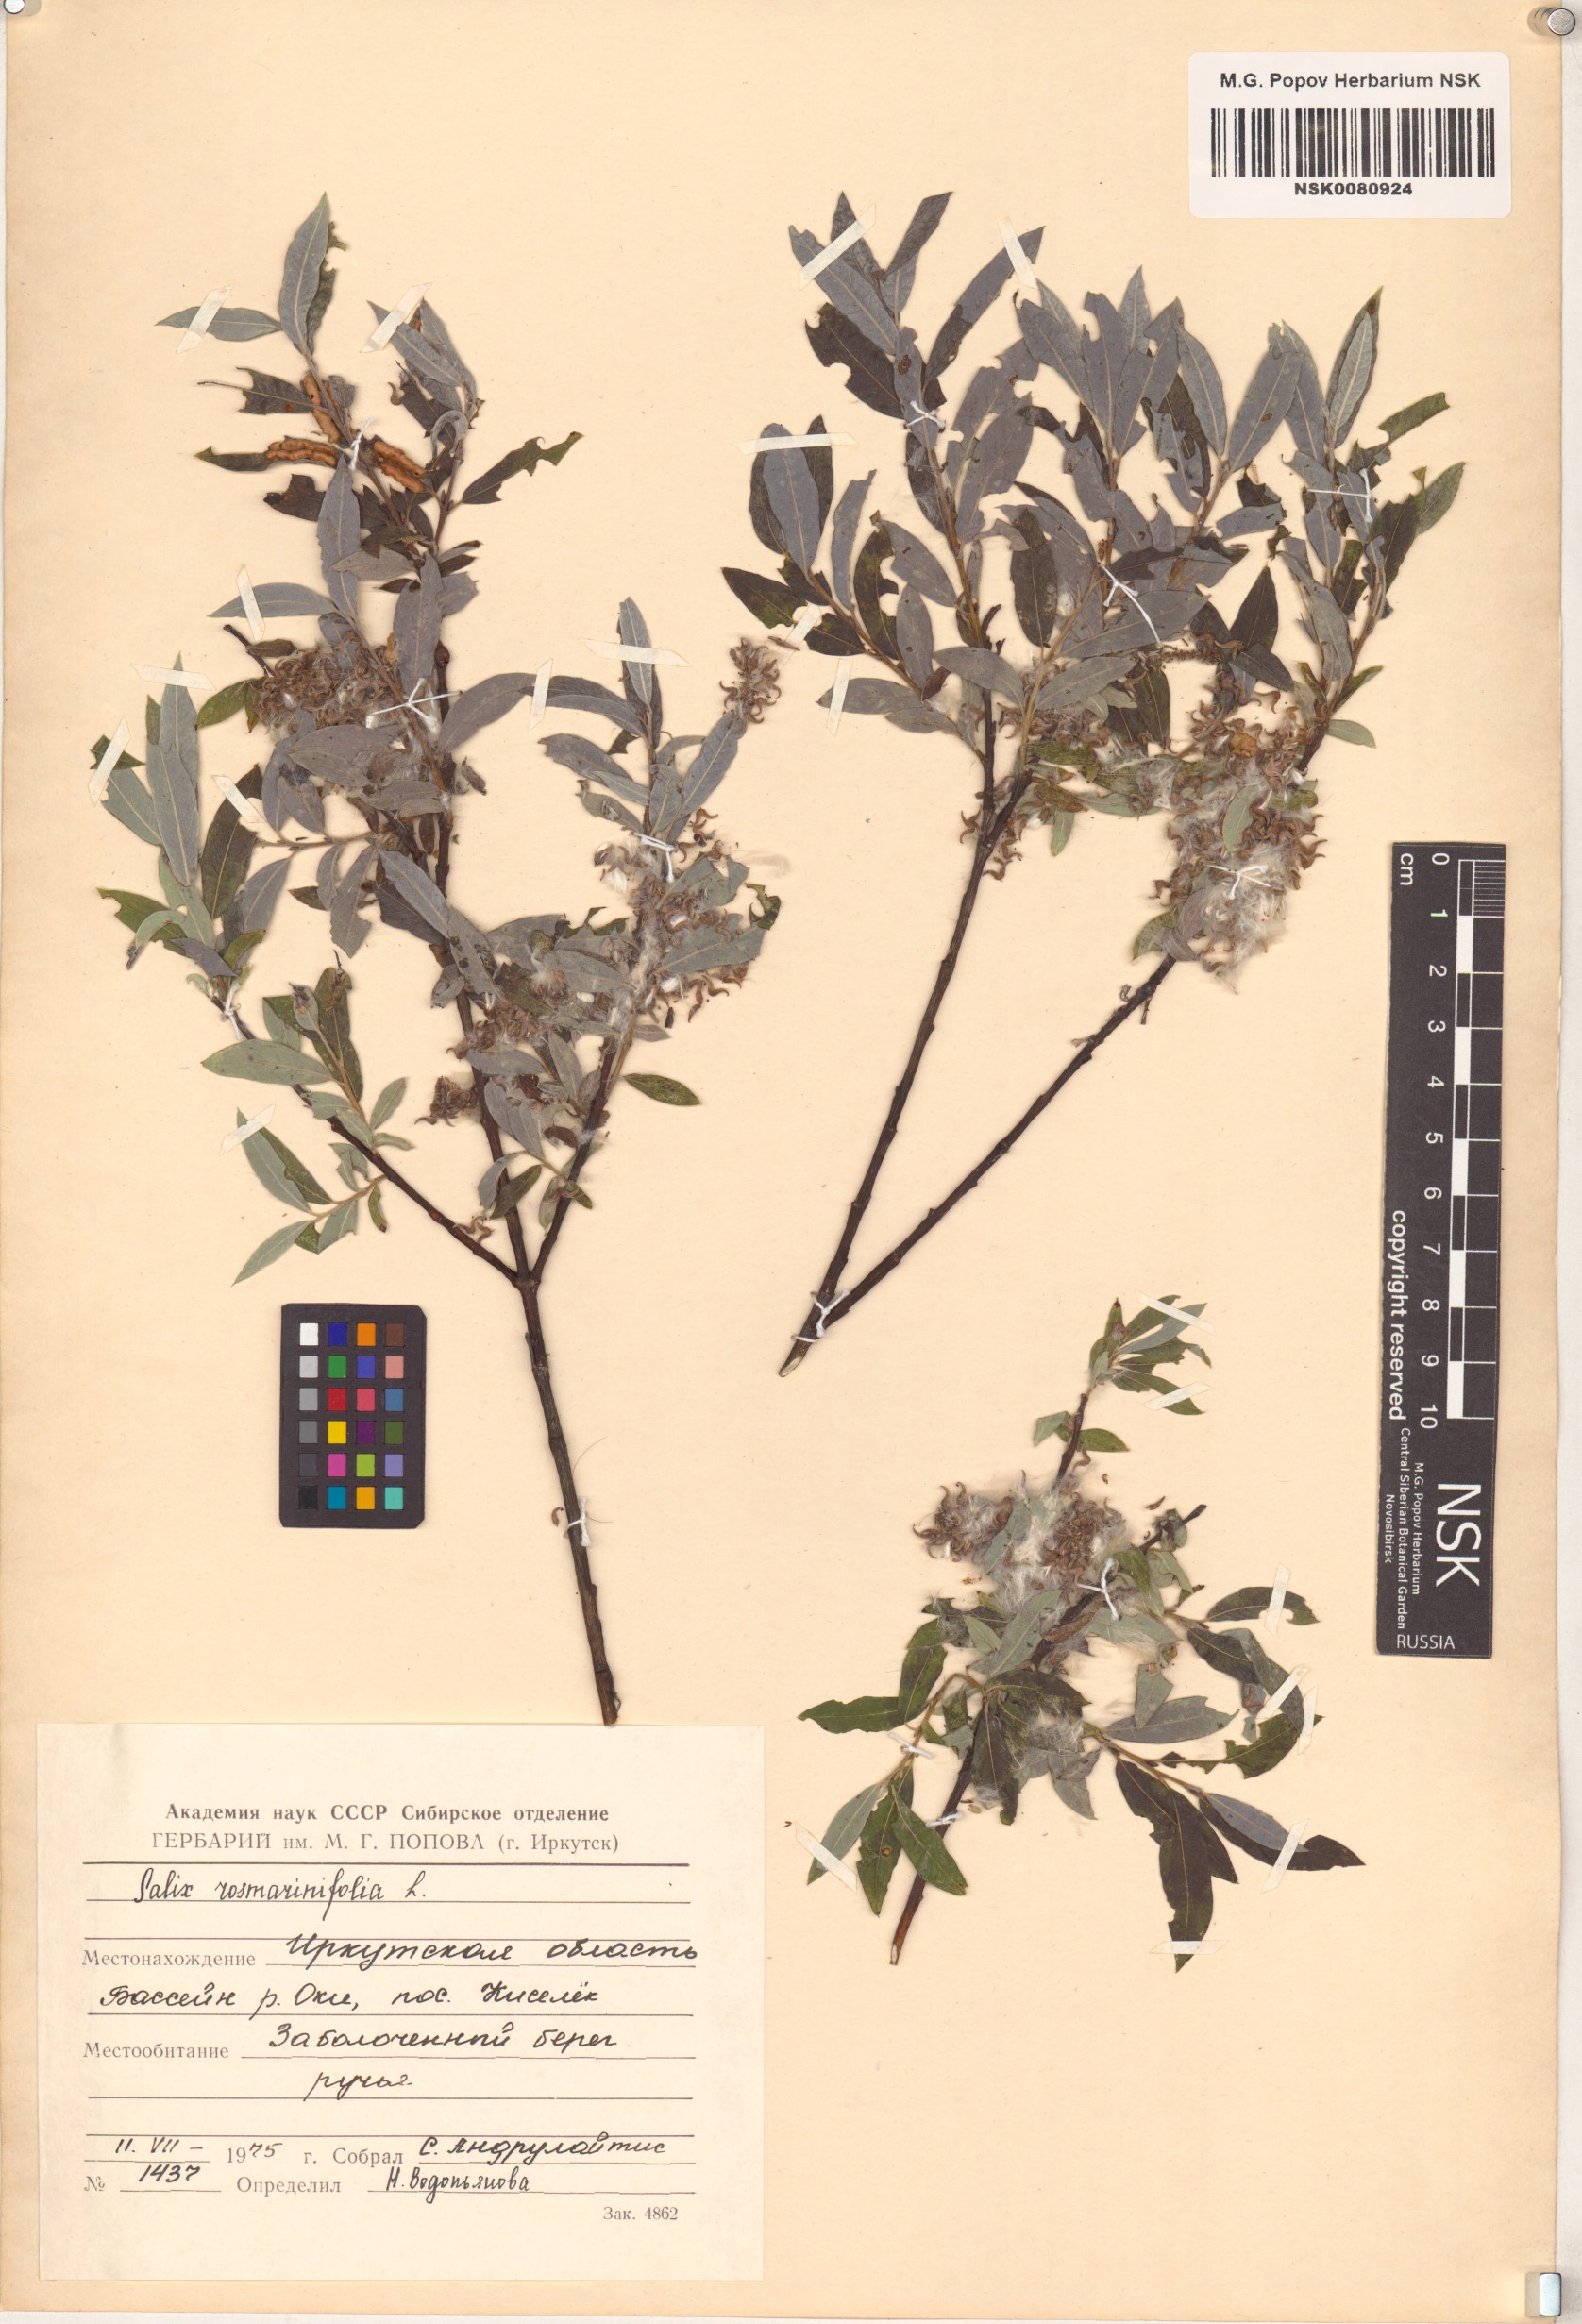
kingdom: Plantae
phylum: Tracheophyta
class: Magnoliopsida
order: Malpighiales
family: Salicaceae
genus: Salix
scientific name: Salix rosmarinifolia
